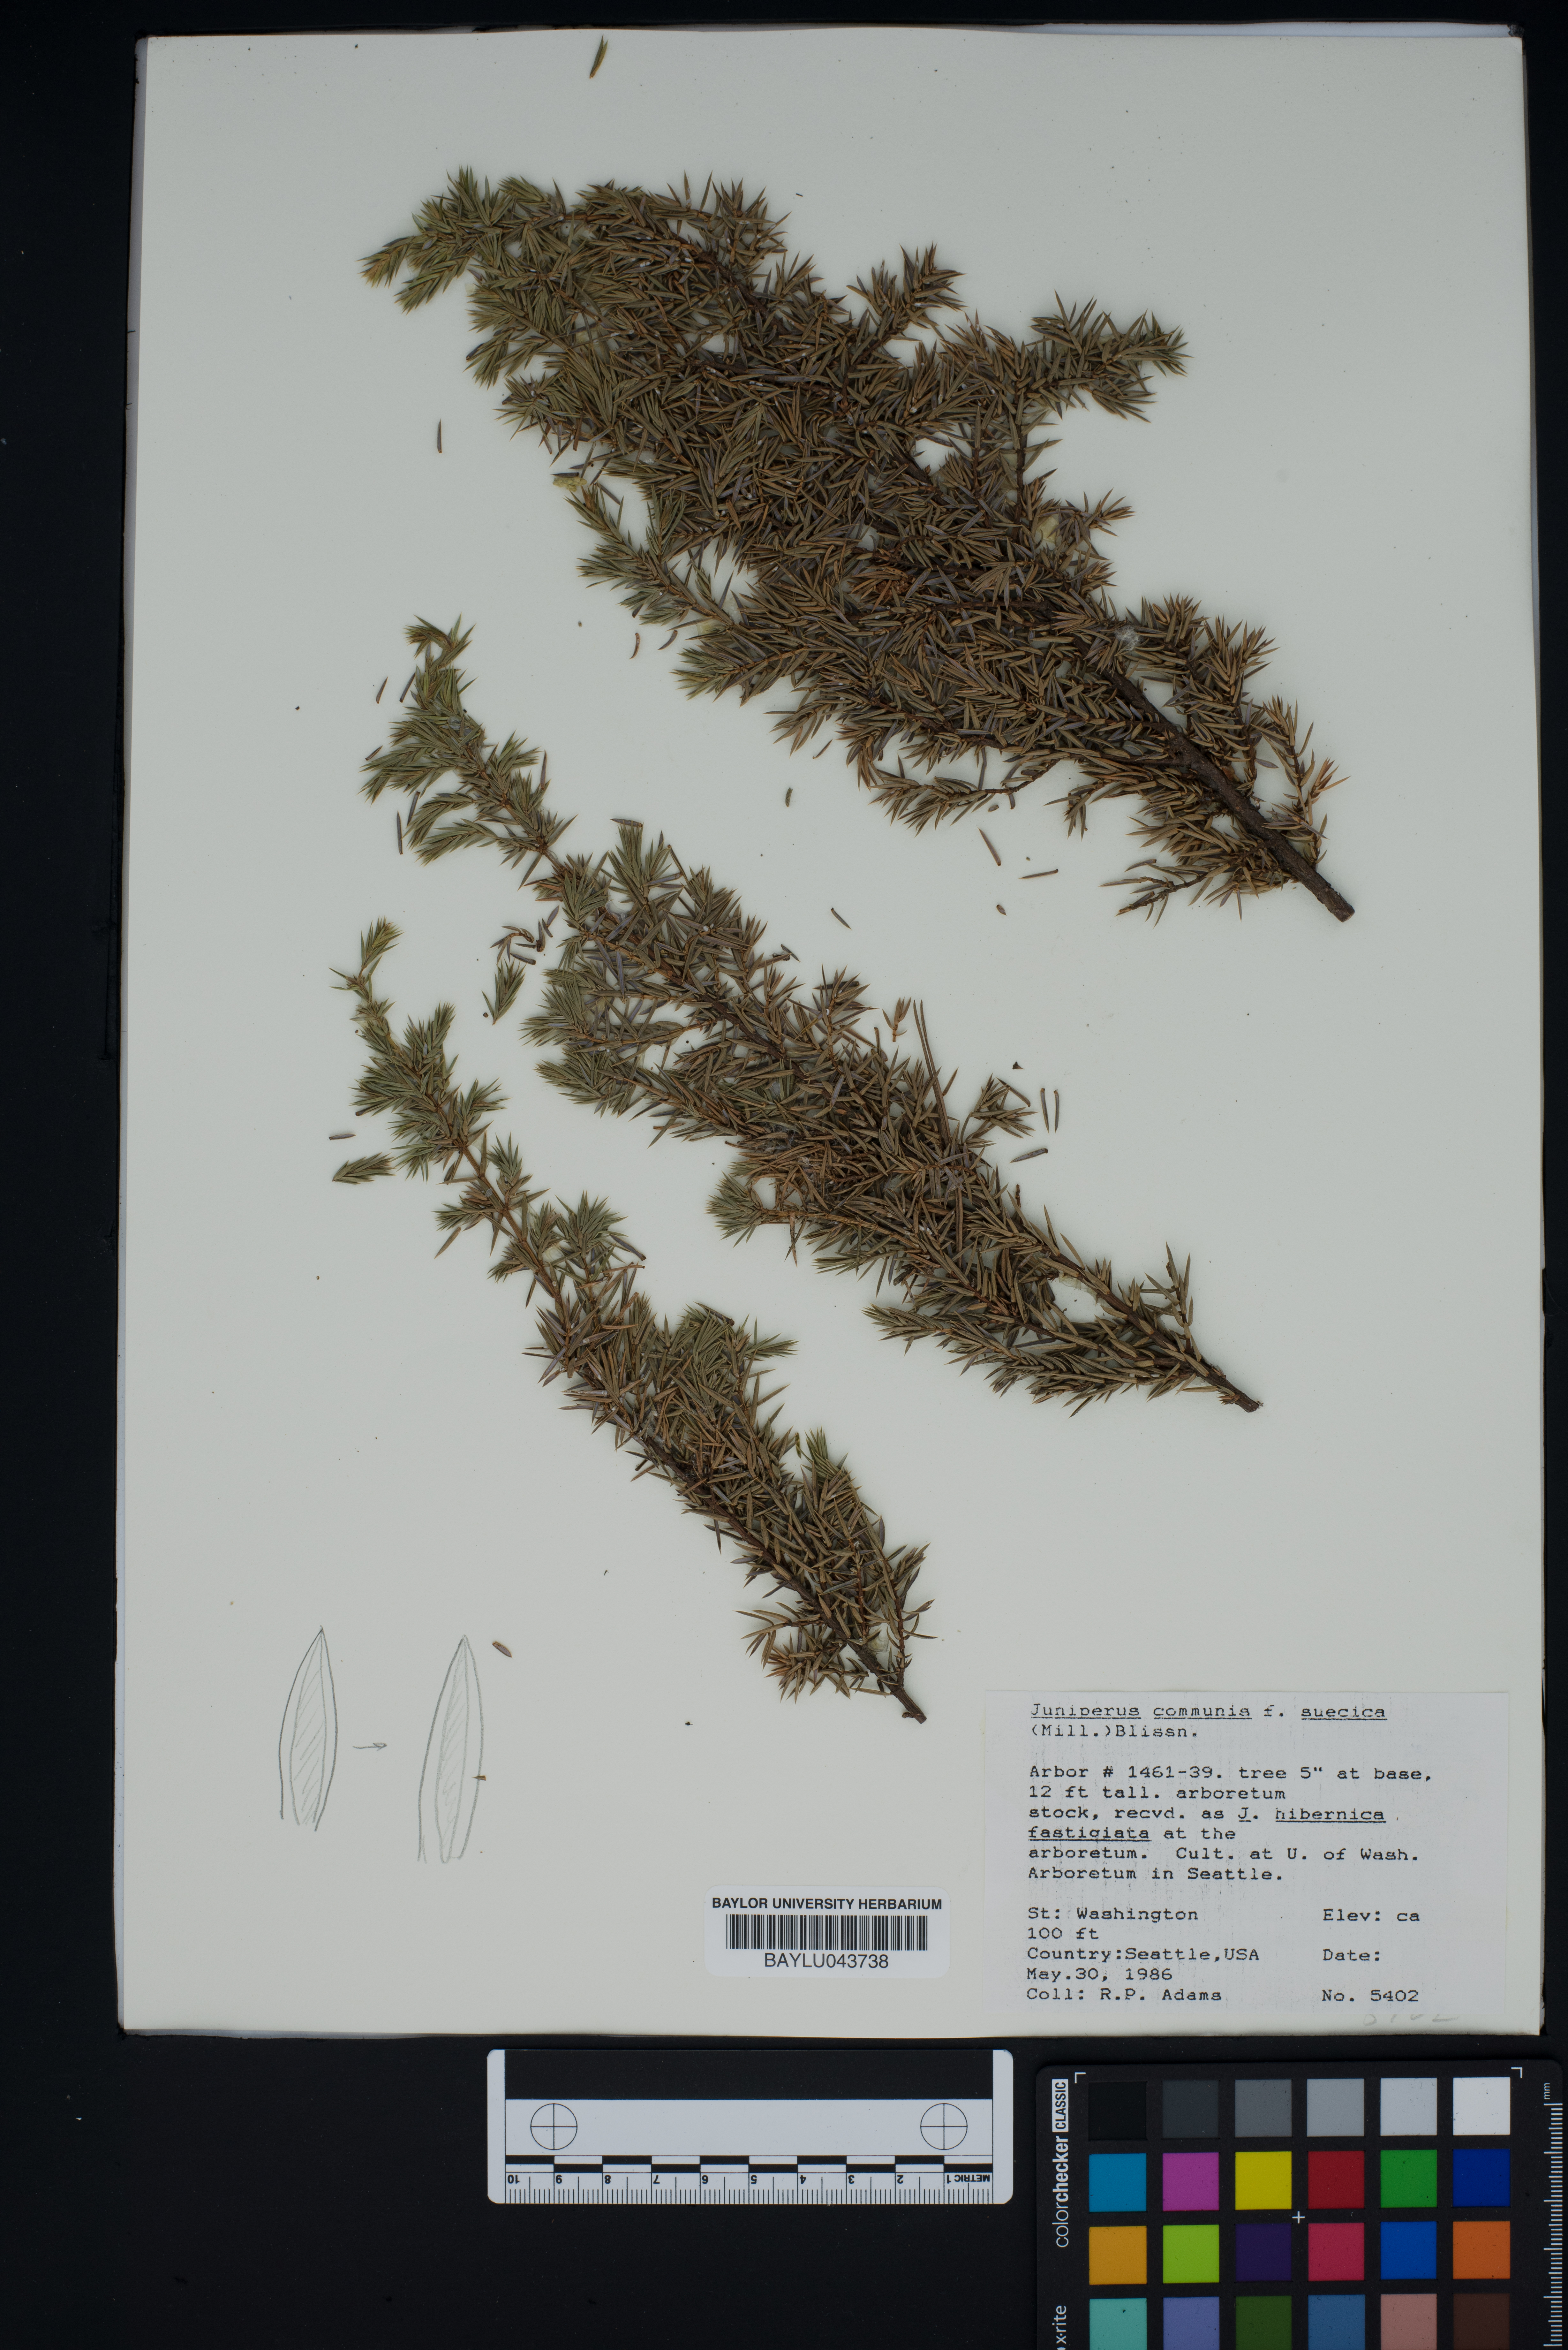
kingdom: Plantae
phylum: Tracheophyta
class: Pinopsida
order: Pinales
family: Cupressaceae
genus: Juniperus
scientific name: Juniperus communis
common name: Common juniper
